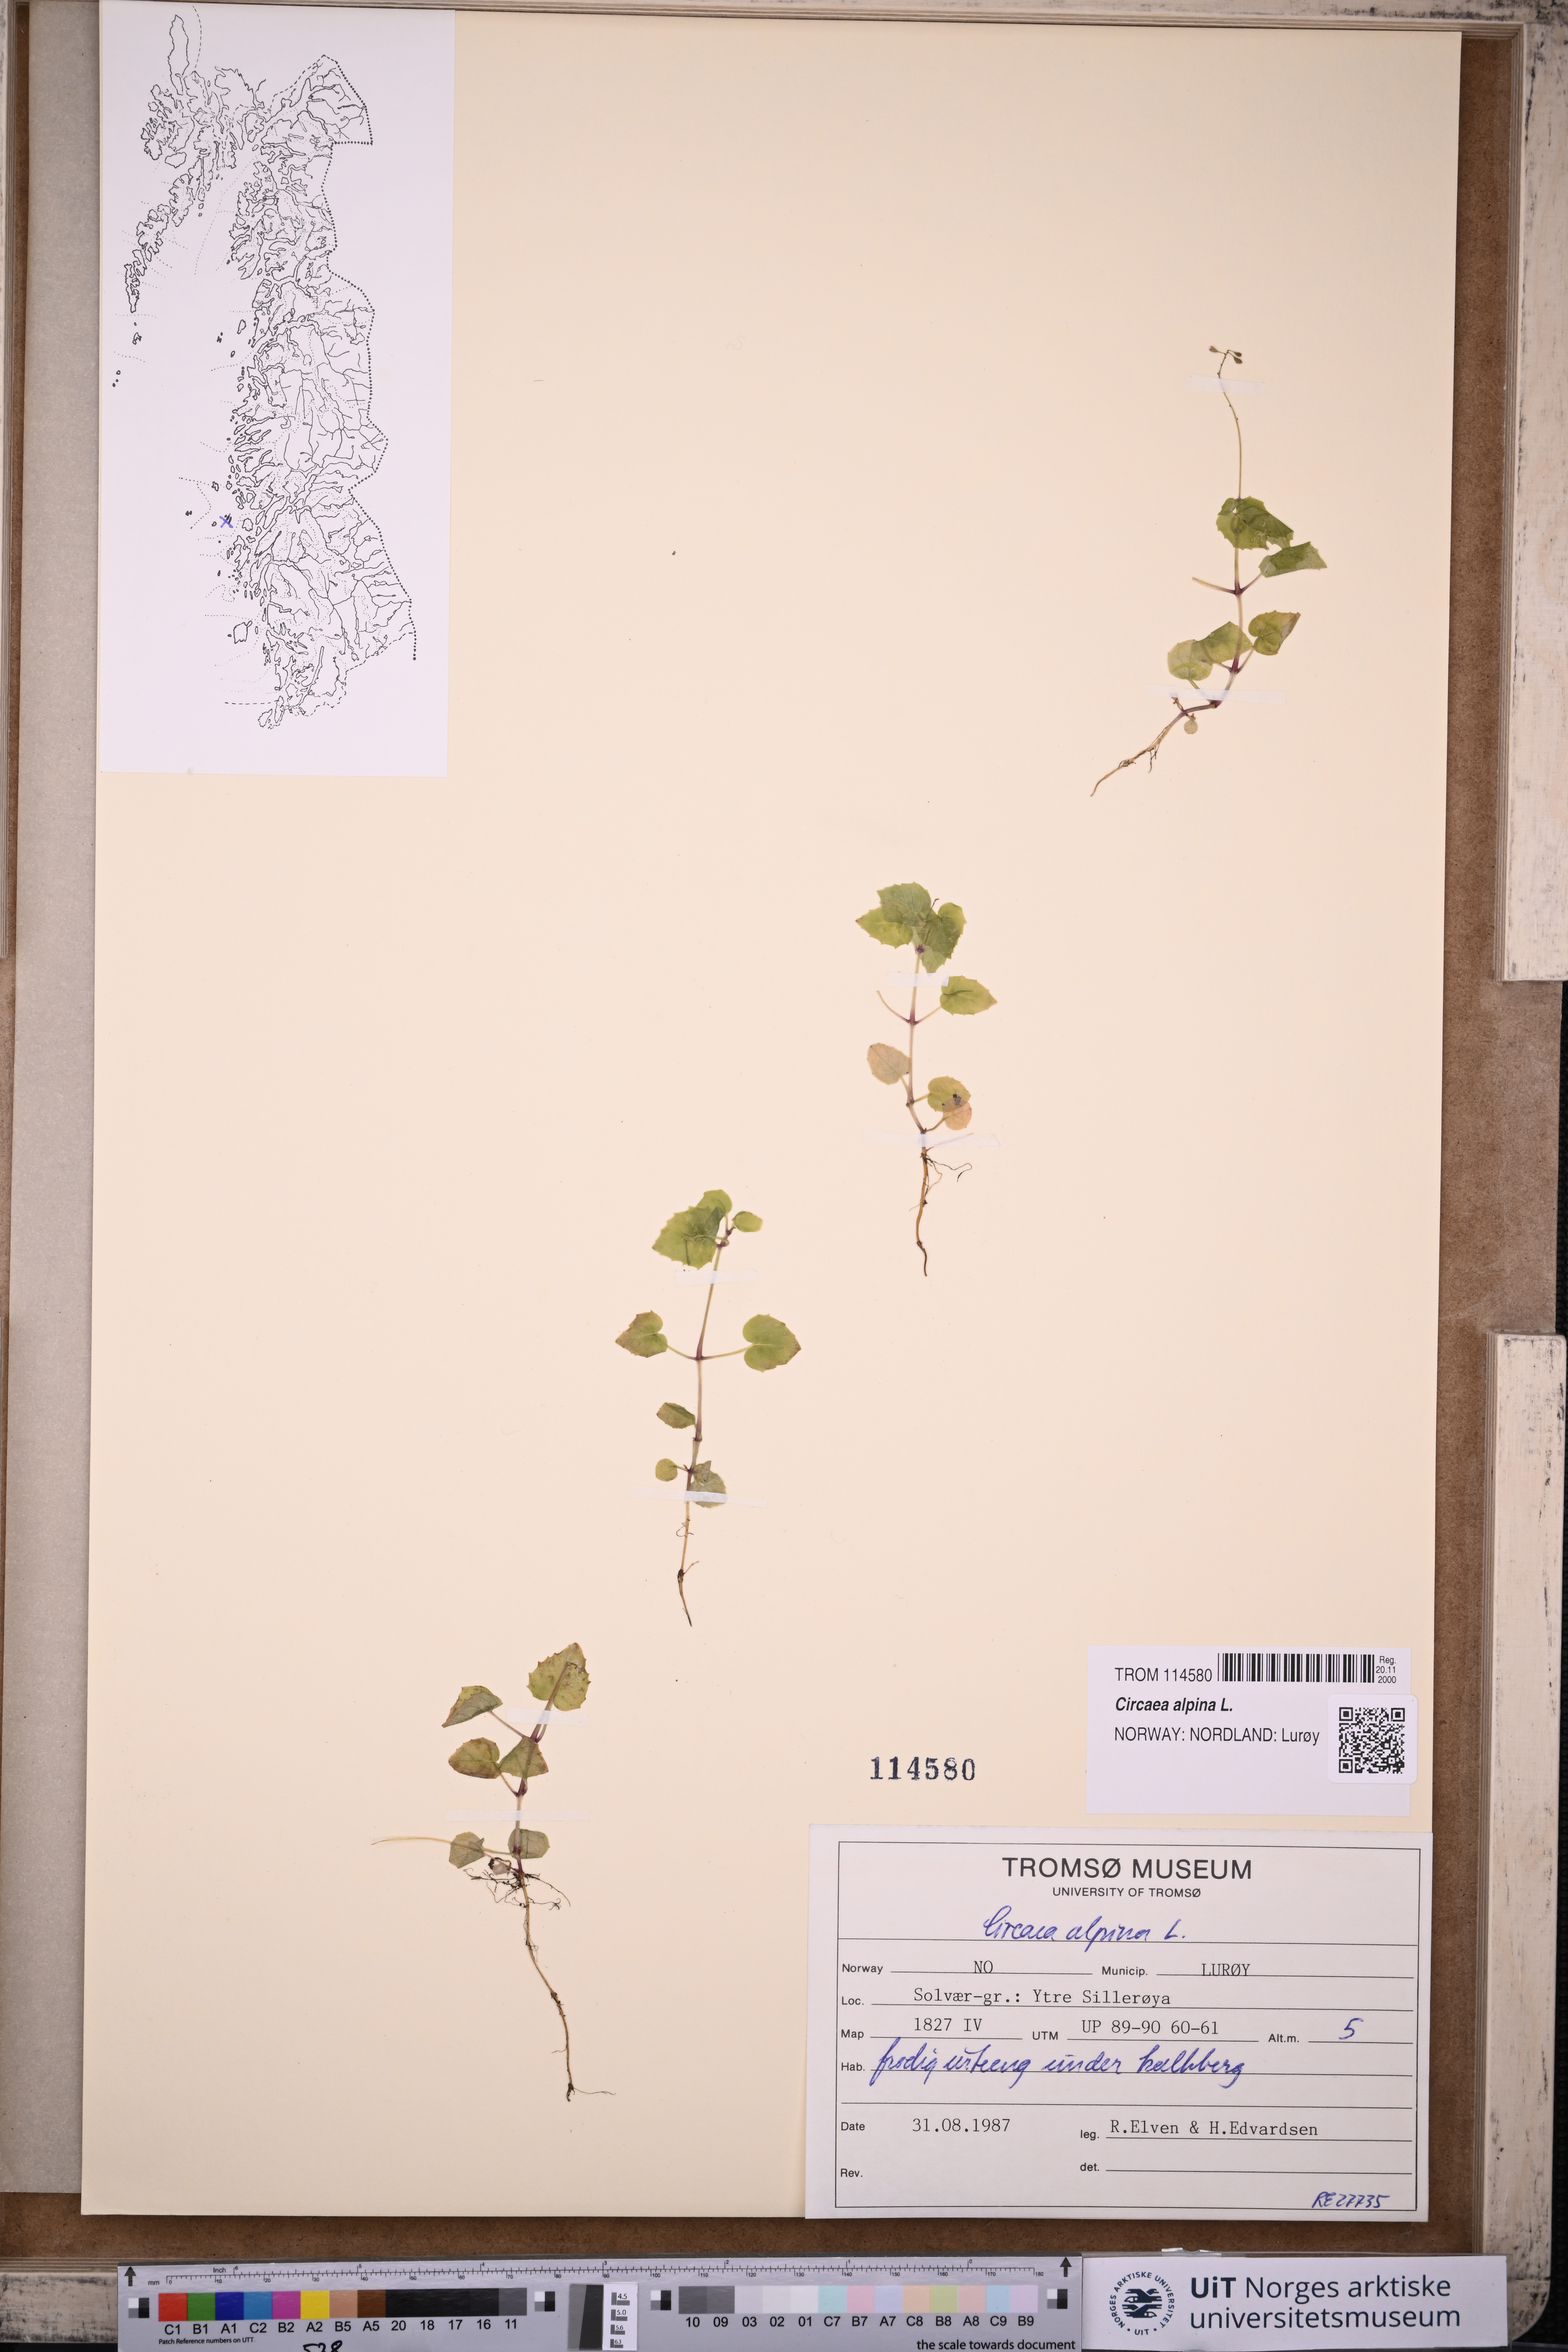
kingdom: Plantae
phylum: Tracheophyta
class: Magnoliopsida
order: Myrtales
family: Onagraceae
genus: Circaea
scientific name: Circaea alpina
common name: Alpine enchanter's-nightshade
